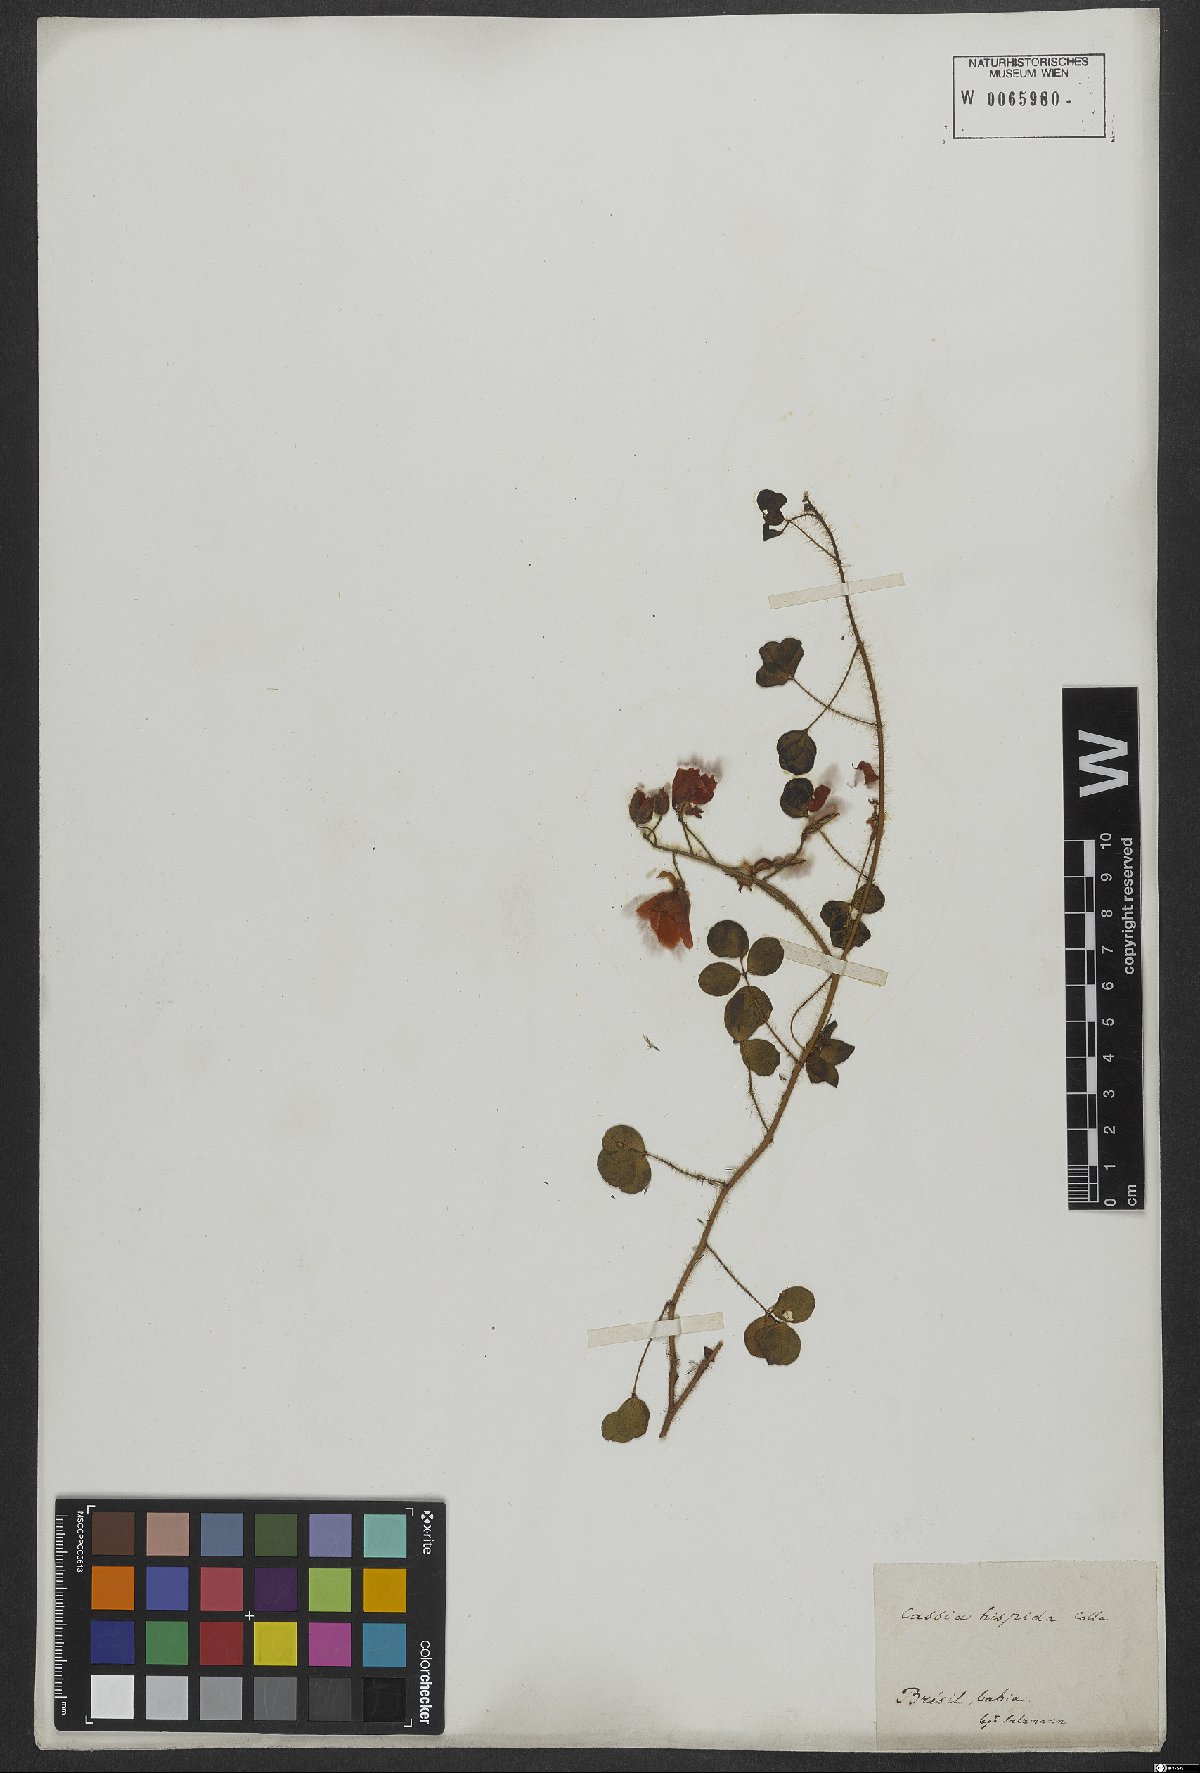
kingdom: Plantae
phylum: Tracheophyta
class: Magnoliopsida
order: Fabales
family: Fabaceae
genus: Chamaecrista
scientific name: Chamaecrista hispidula
